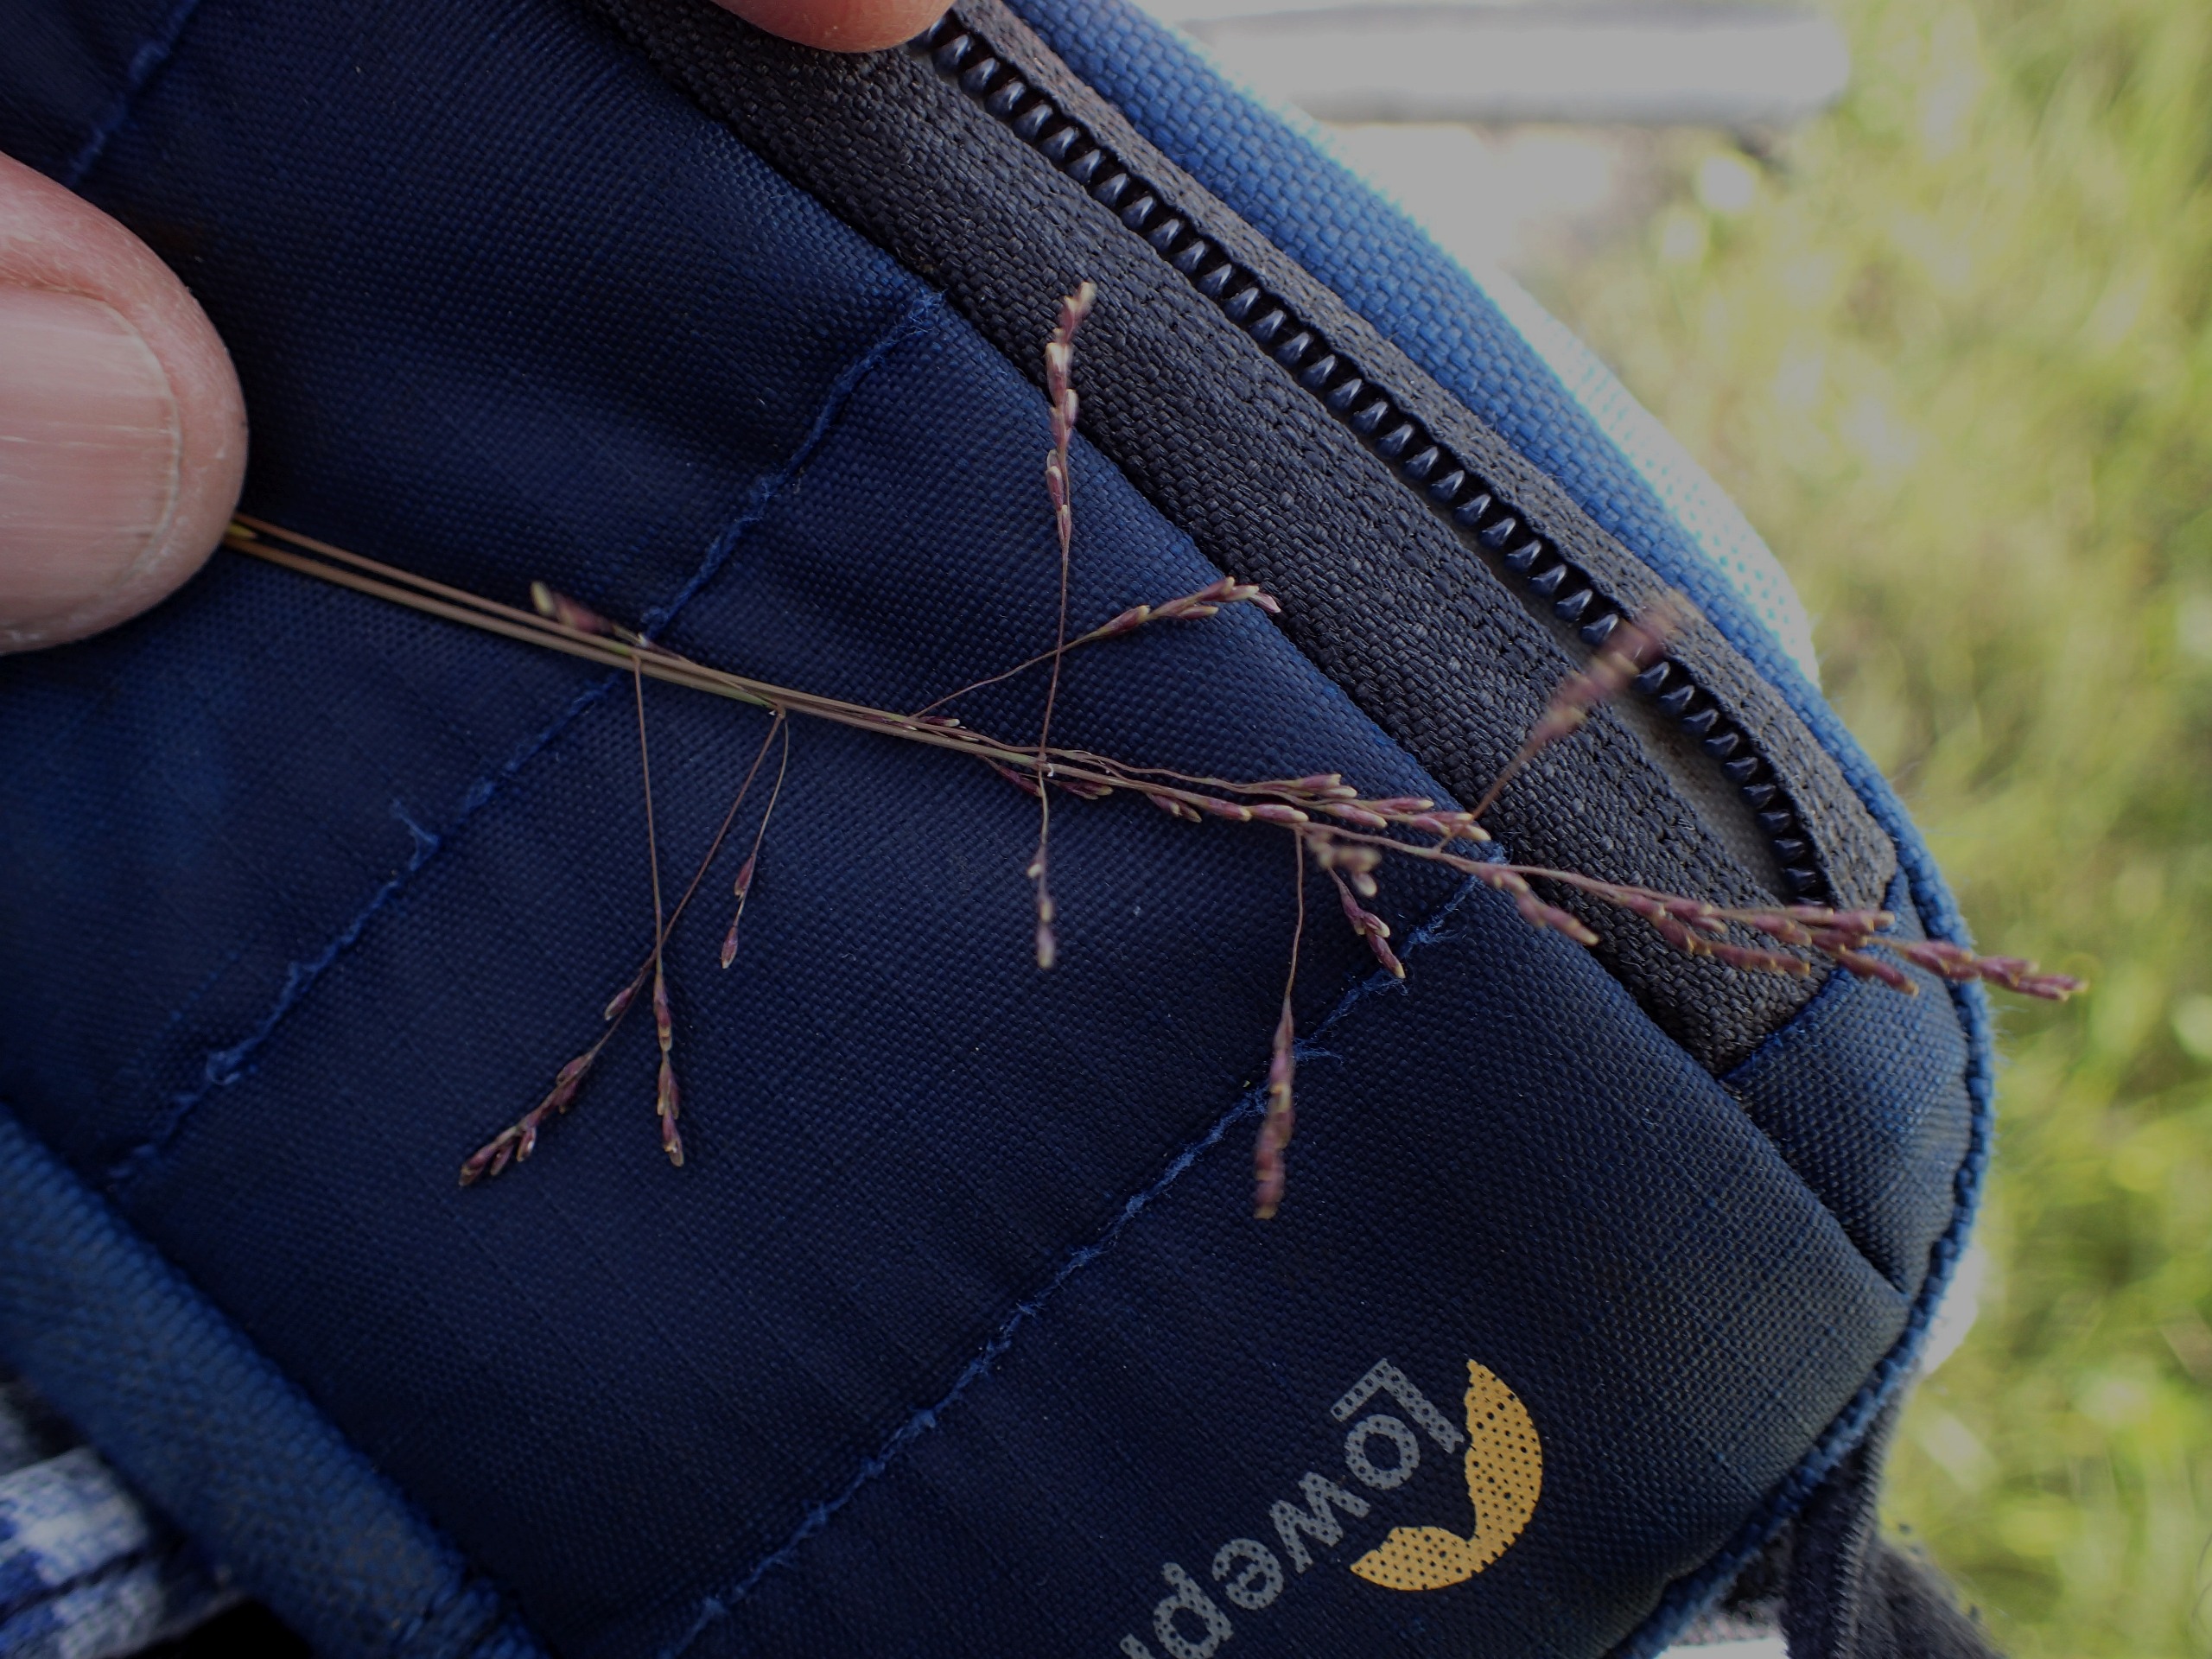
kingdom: Plantae
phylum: Tracheophyta
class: Liliopsida
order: Poales
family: Poaceae
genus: Puccinellia
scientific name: Puccinellia distans
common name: Udspærret annelgræs
